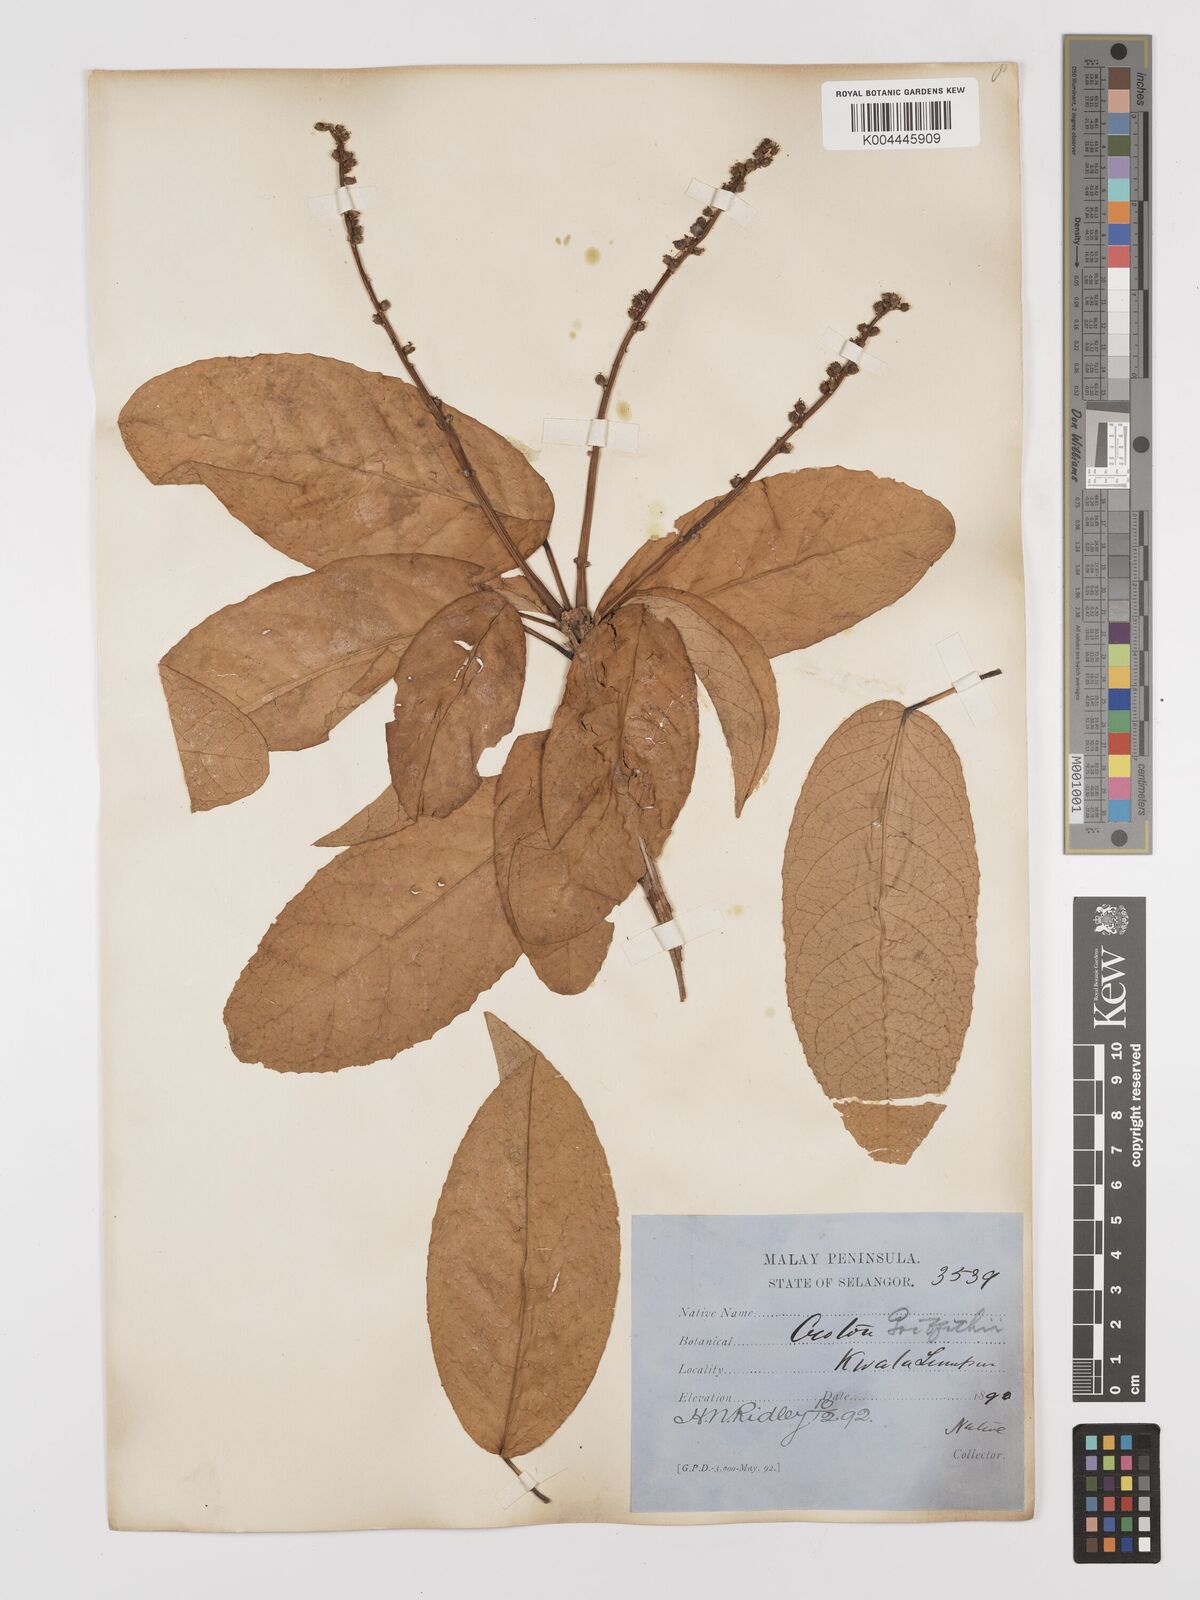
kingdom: Plantae
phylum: Tracheophyta
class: Magnoliopsida
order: Malpighiales
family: Euphorbiaceae
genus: Croton
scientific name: Croton griffithii
